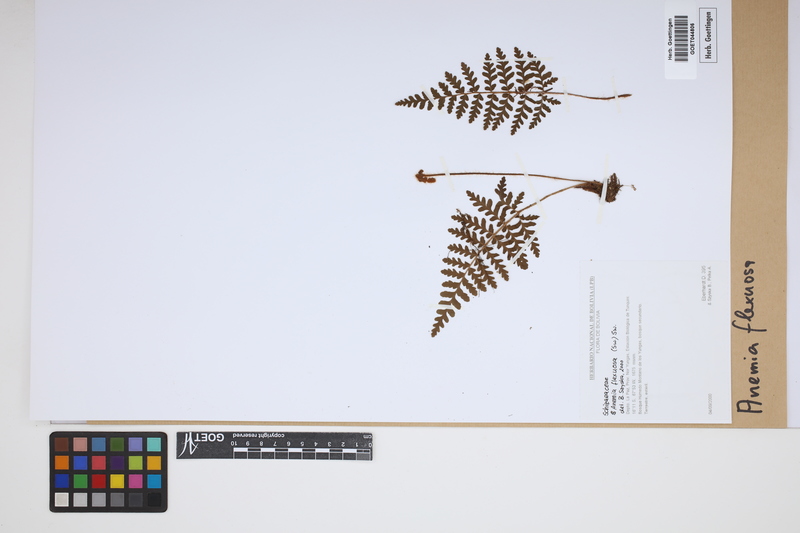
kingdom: Plantae
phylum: Tracheophyta
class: Polypodiopsida
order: Schizaeales
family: Anemiaceae
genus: Anemia
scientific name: Anemia flexuosa
